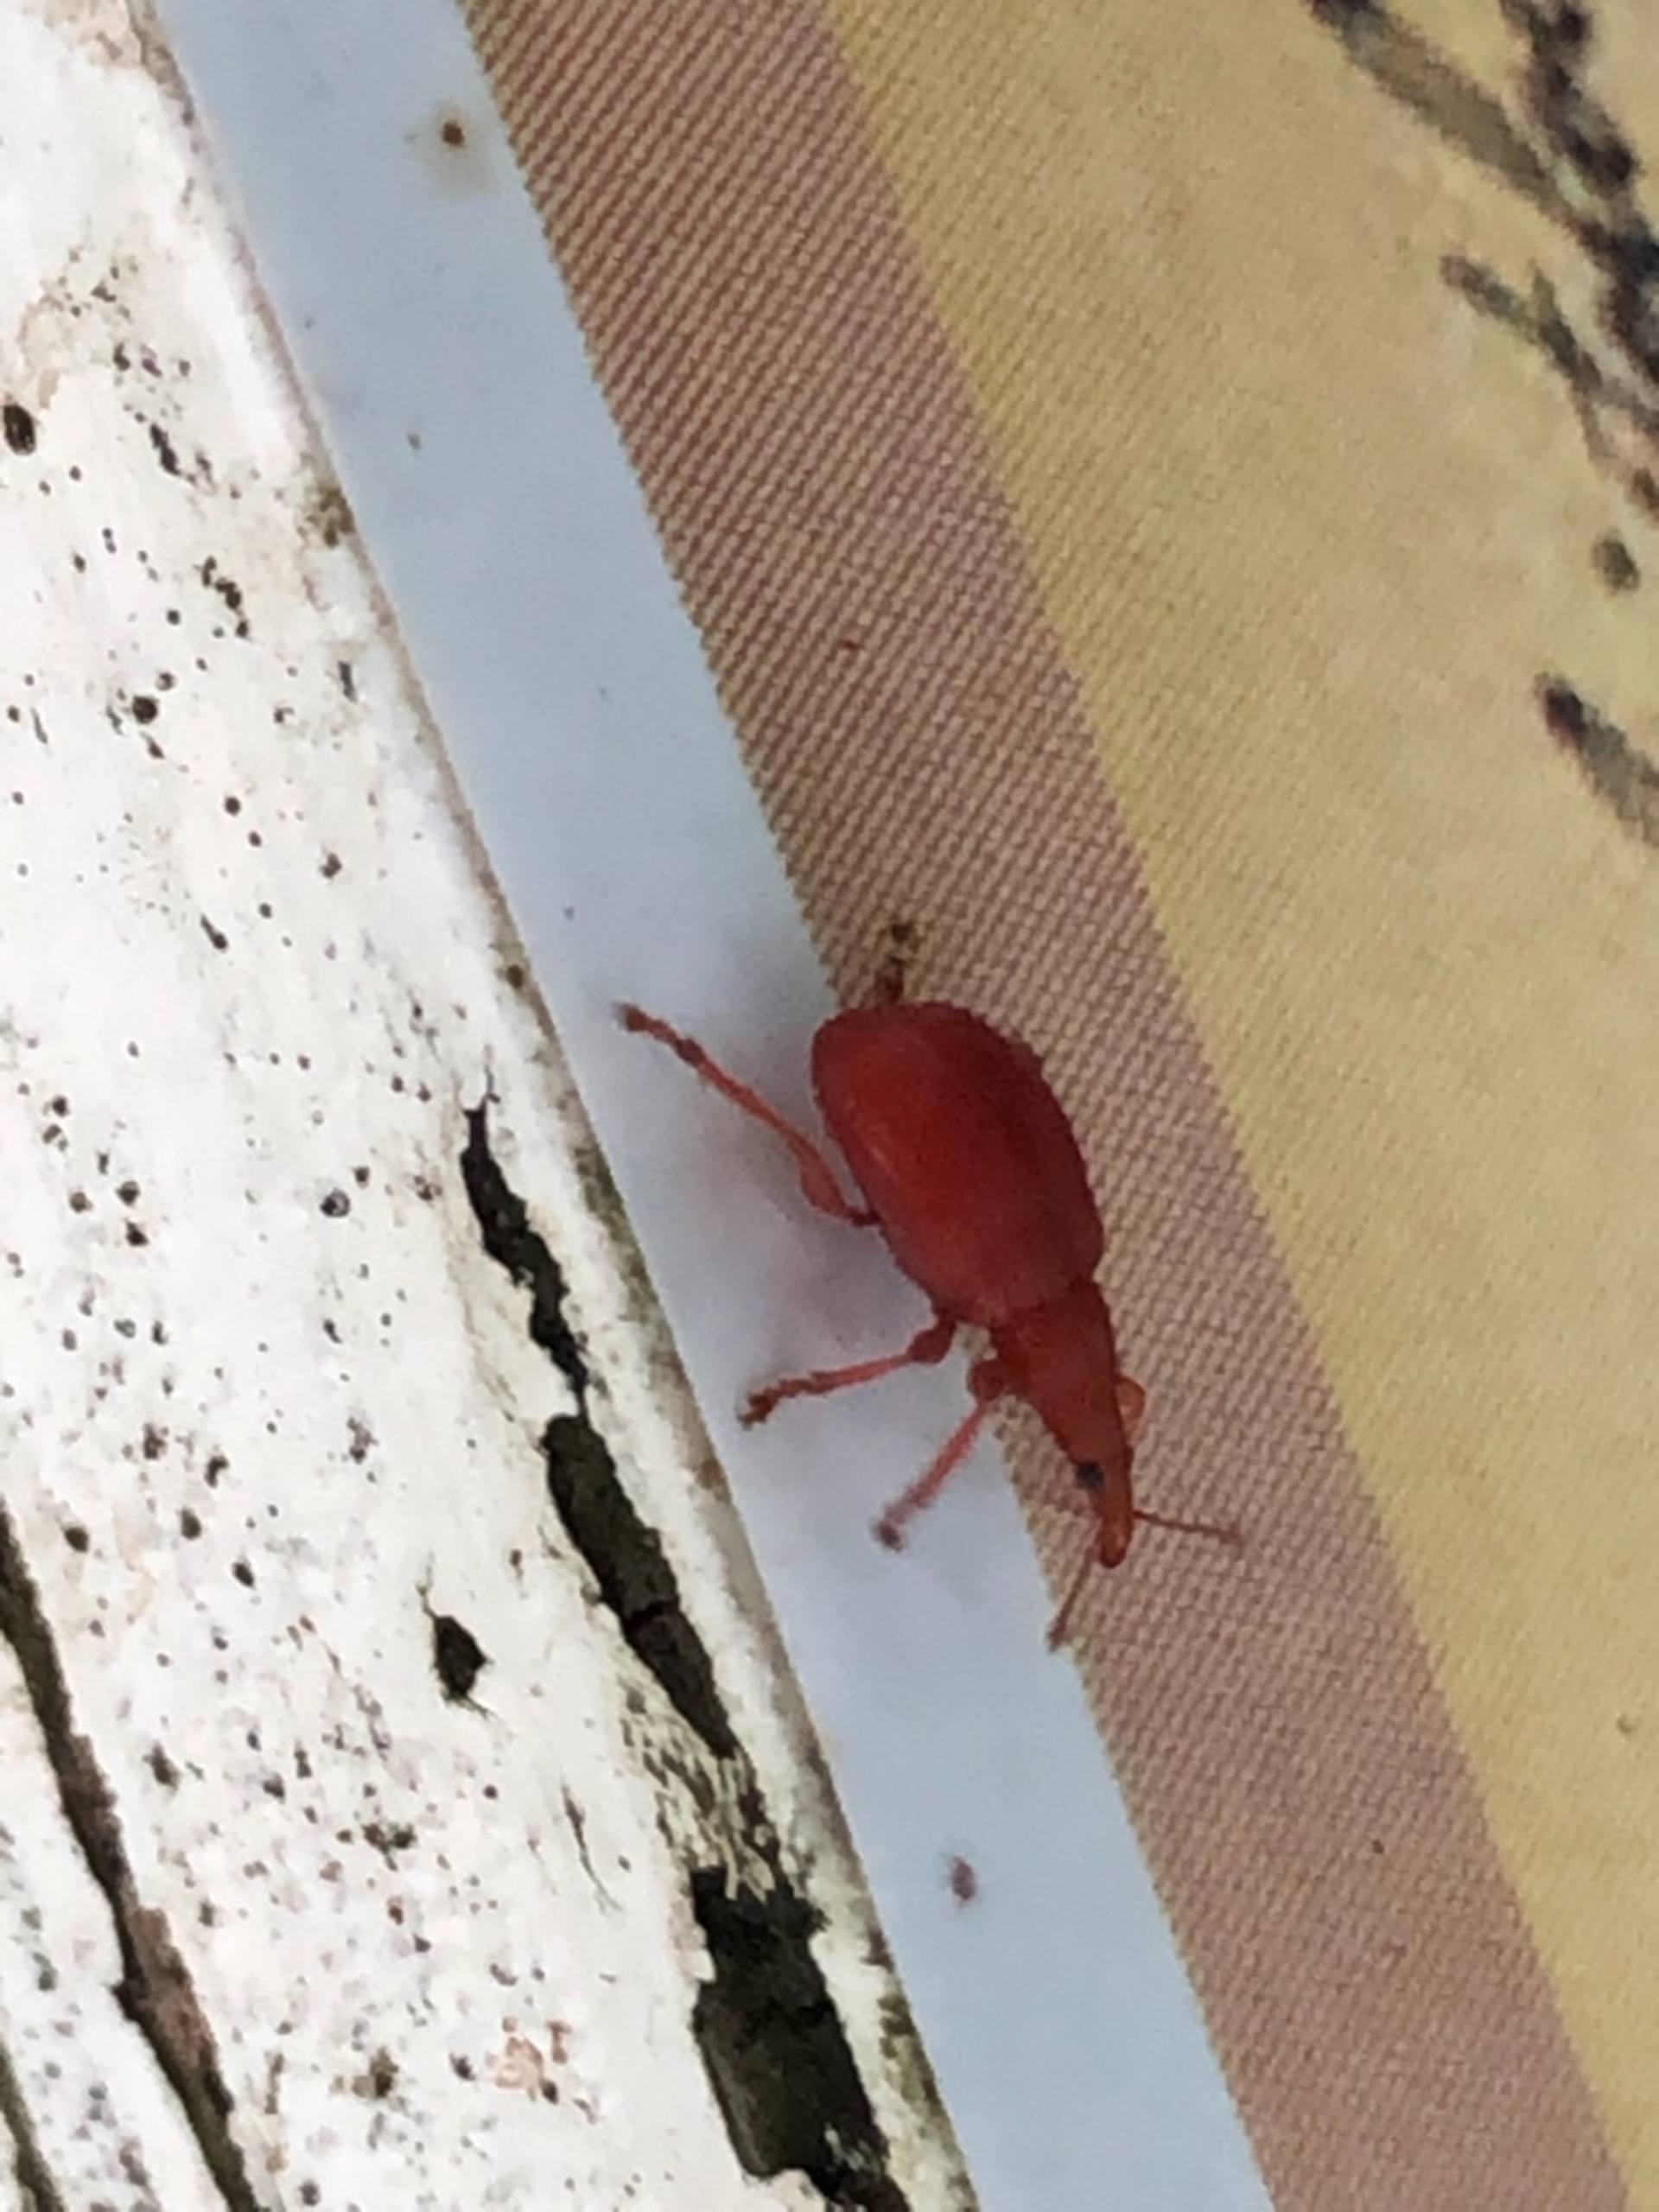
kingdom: Animalia
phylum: Arthropoda
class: Insecta
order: Coleoptera
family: Apionidae
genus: Apion
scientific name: Apion frumentarium
